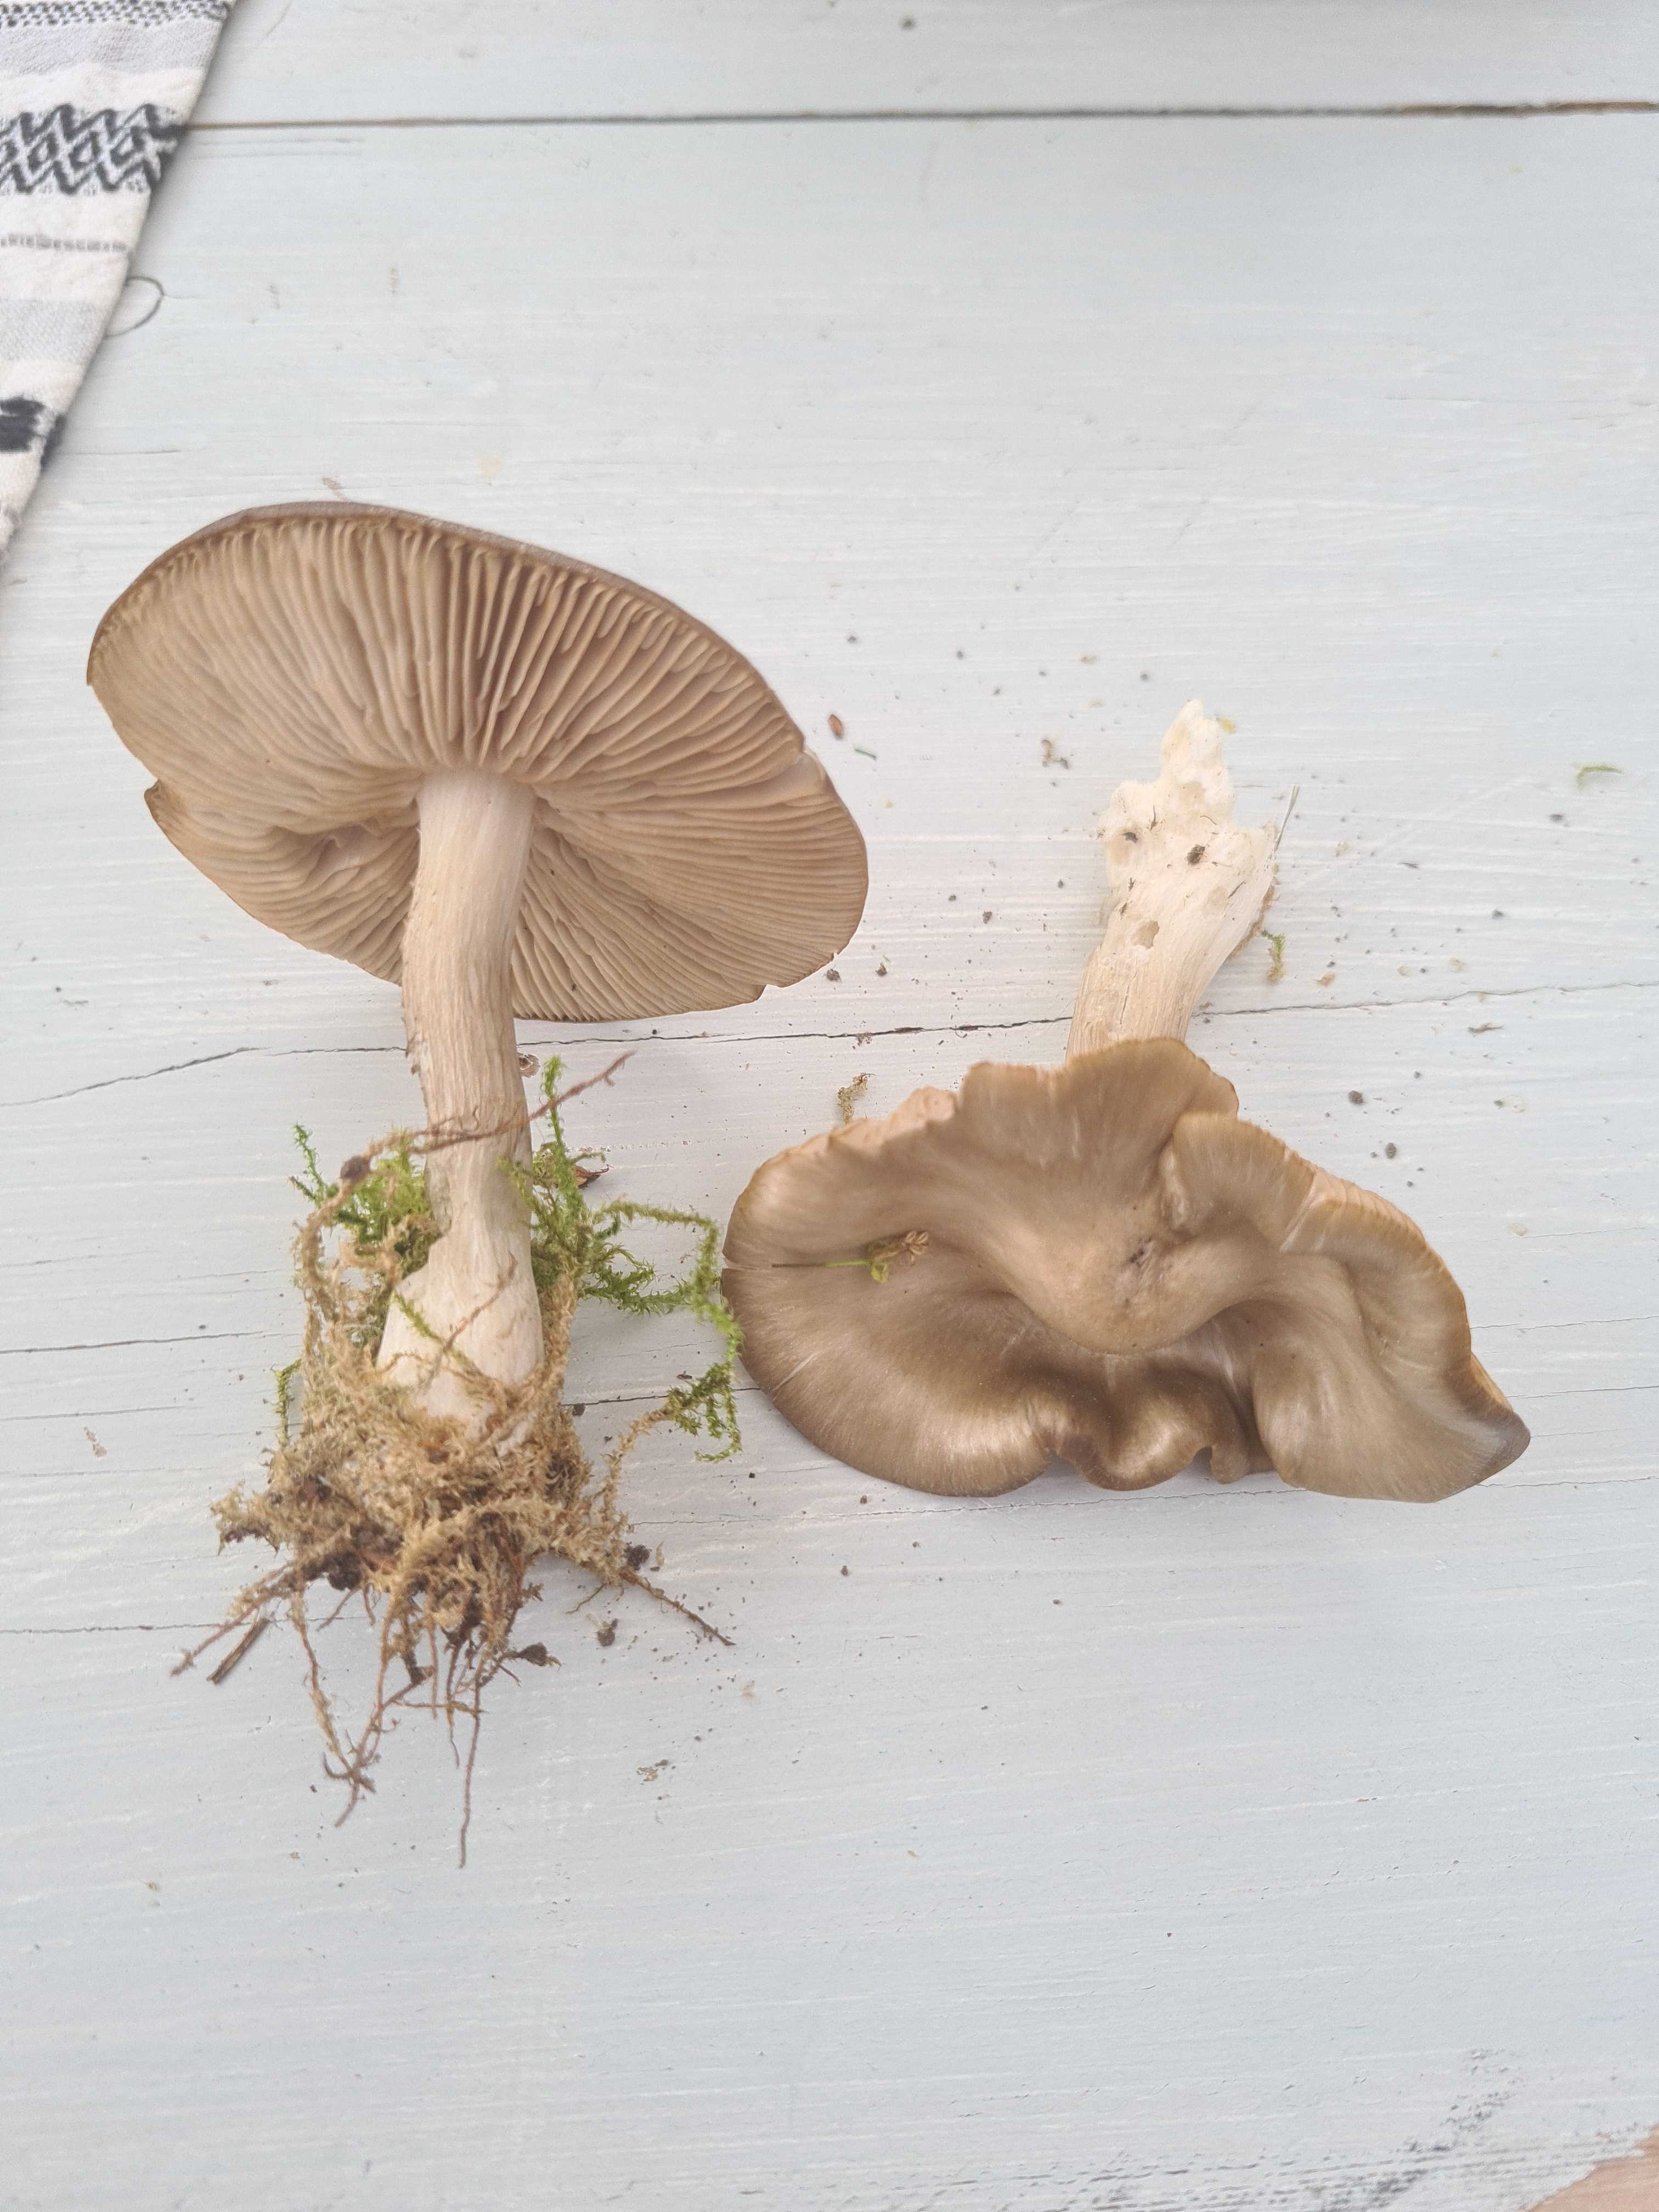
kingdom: Fungi
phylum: Basidiomycota
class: Agaricomycetes
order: Agaricales
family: Entolomataceae
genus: Entoloma
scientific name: Entoloma clypeatum
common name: flammet rødblad
